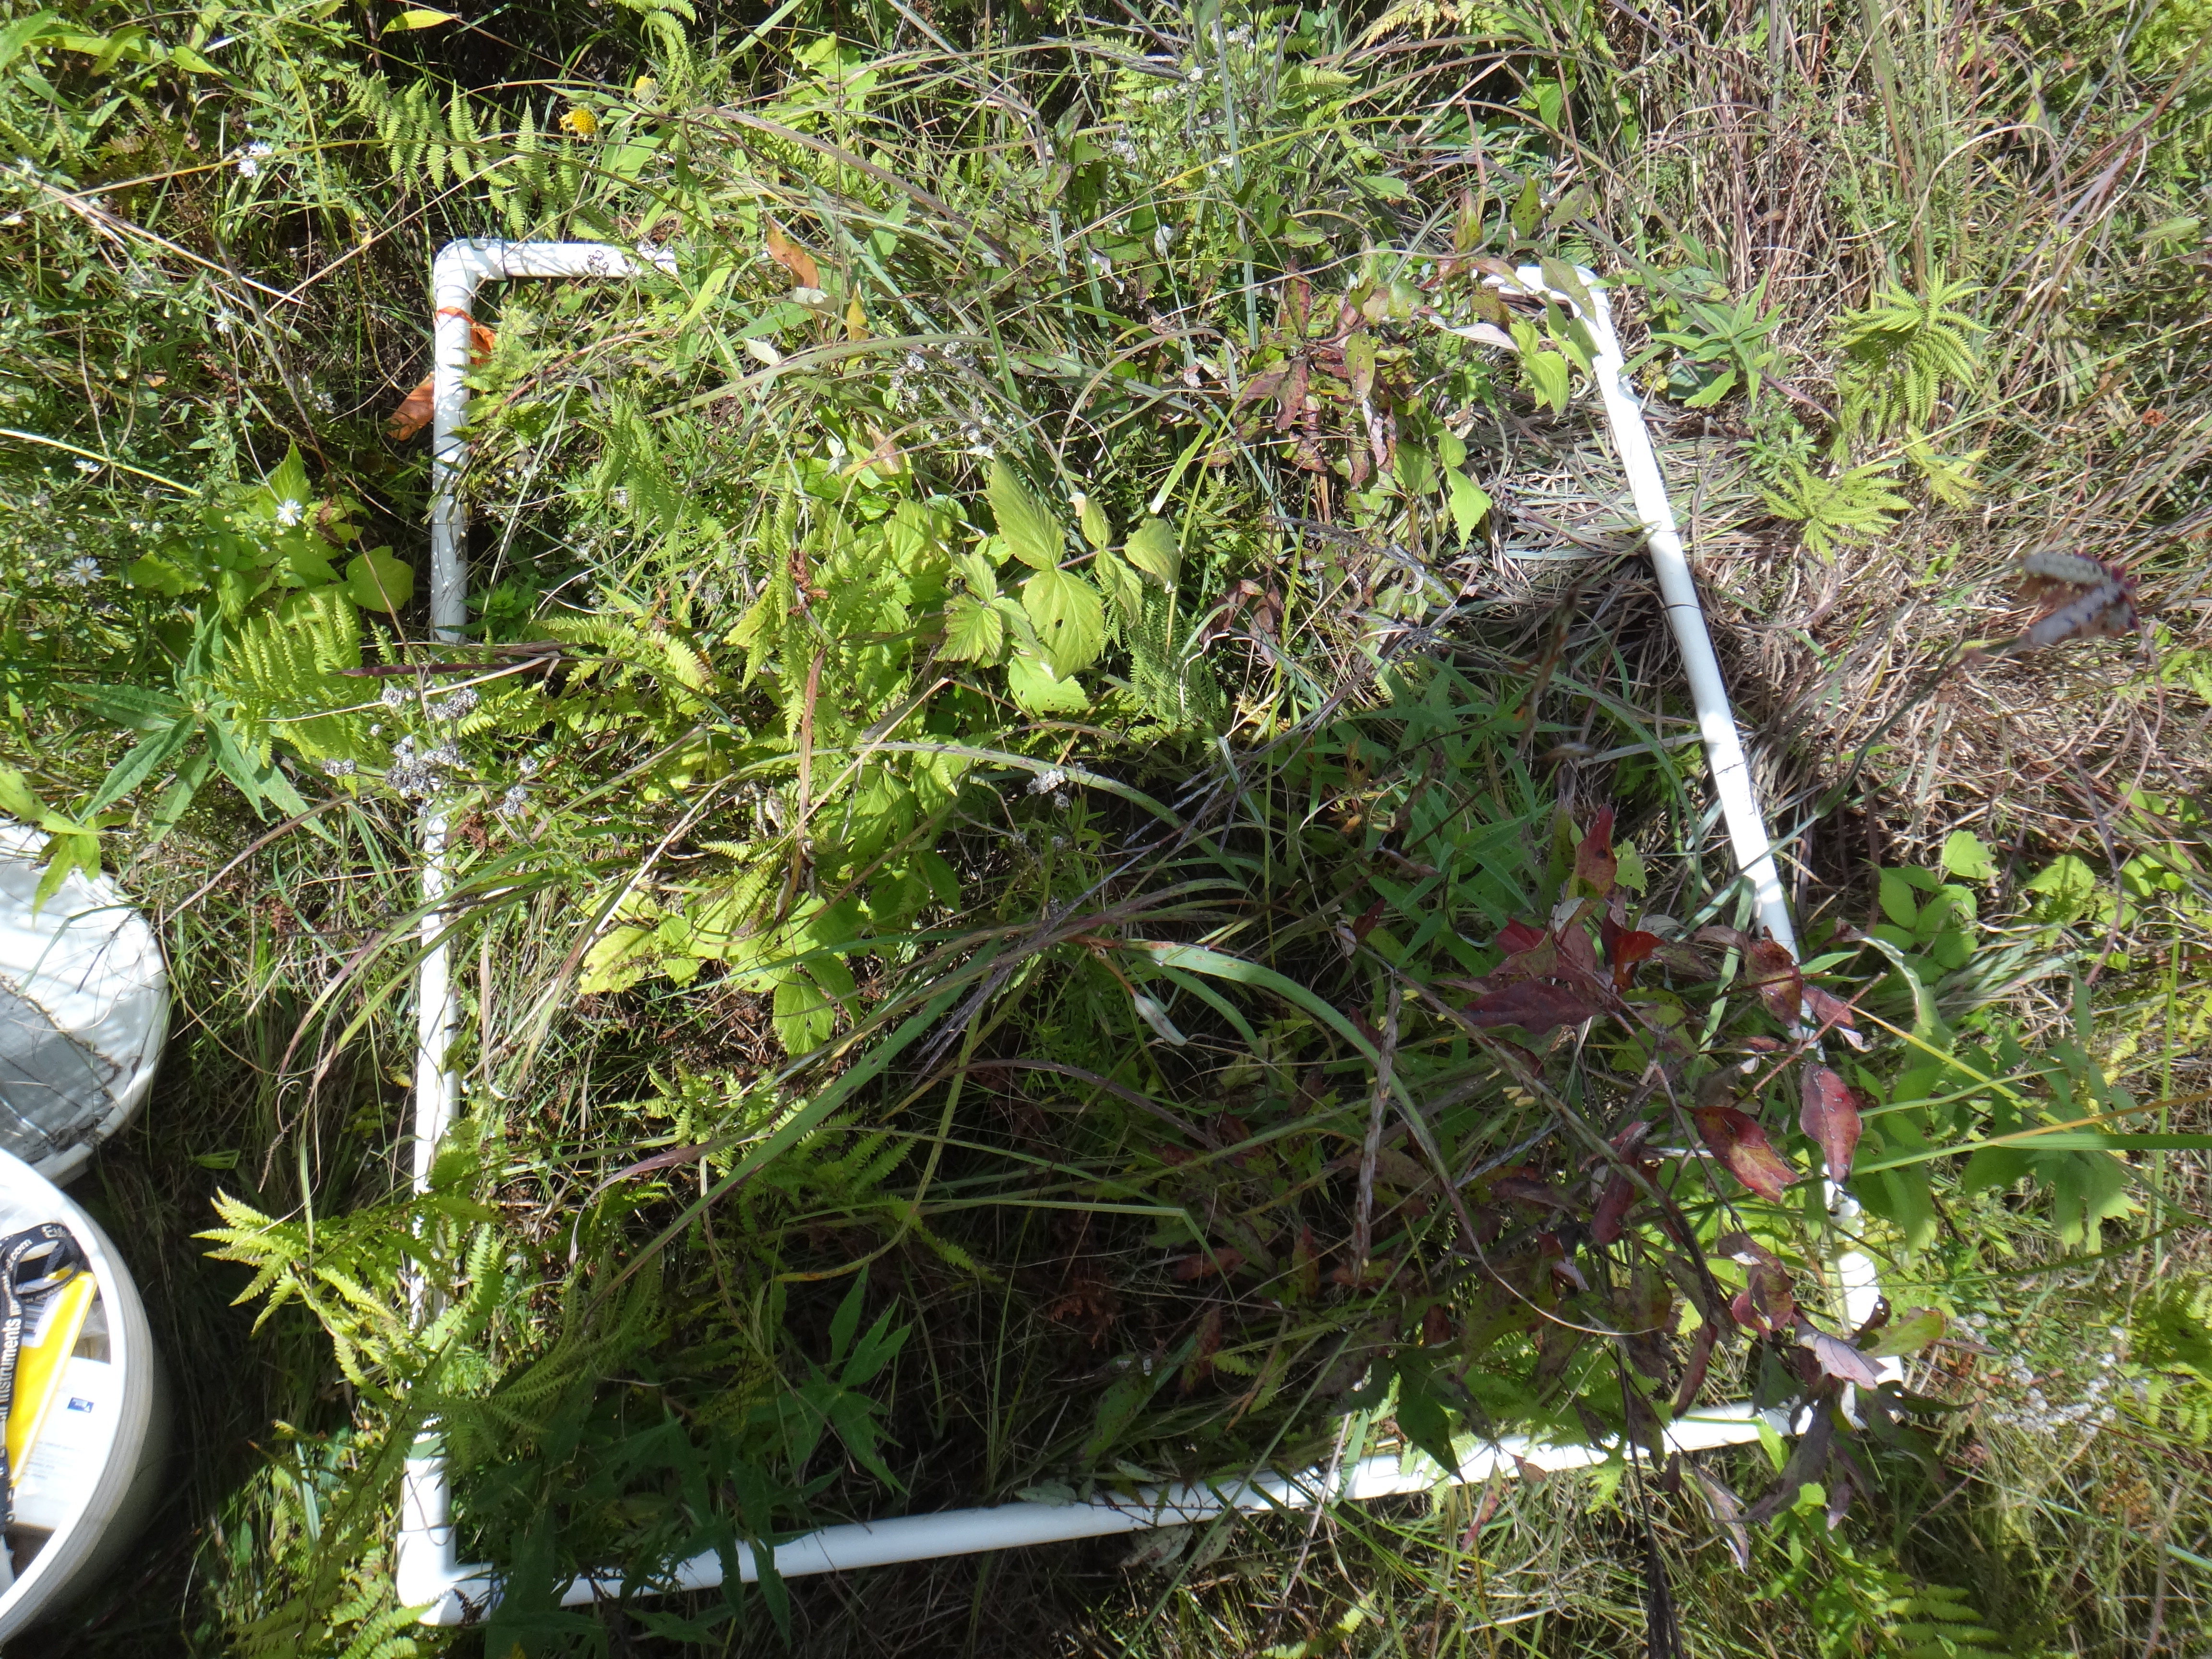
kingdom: Plantae
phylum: Tracheophyta
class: Liliopsida
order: Poales
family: Cyperaceae
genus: Carex
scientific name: Carex sterilis
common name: Dioecious sedge
